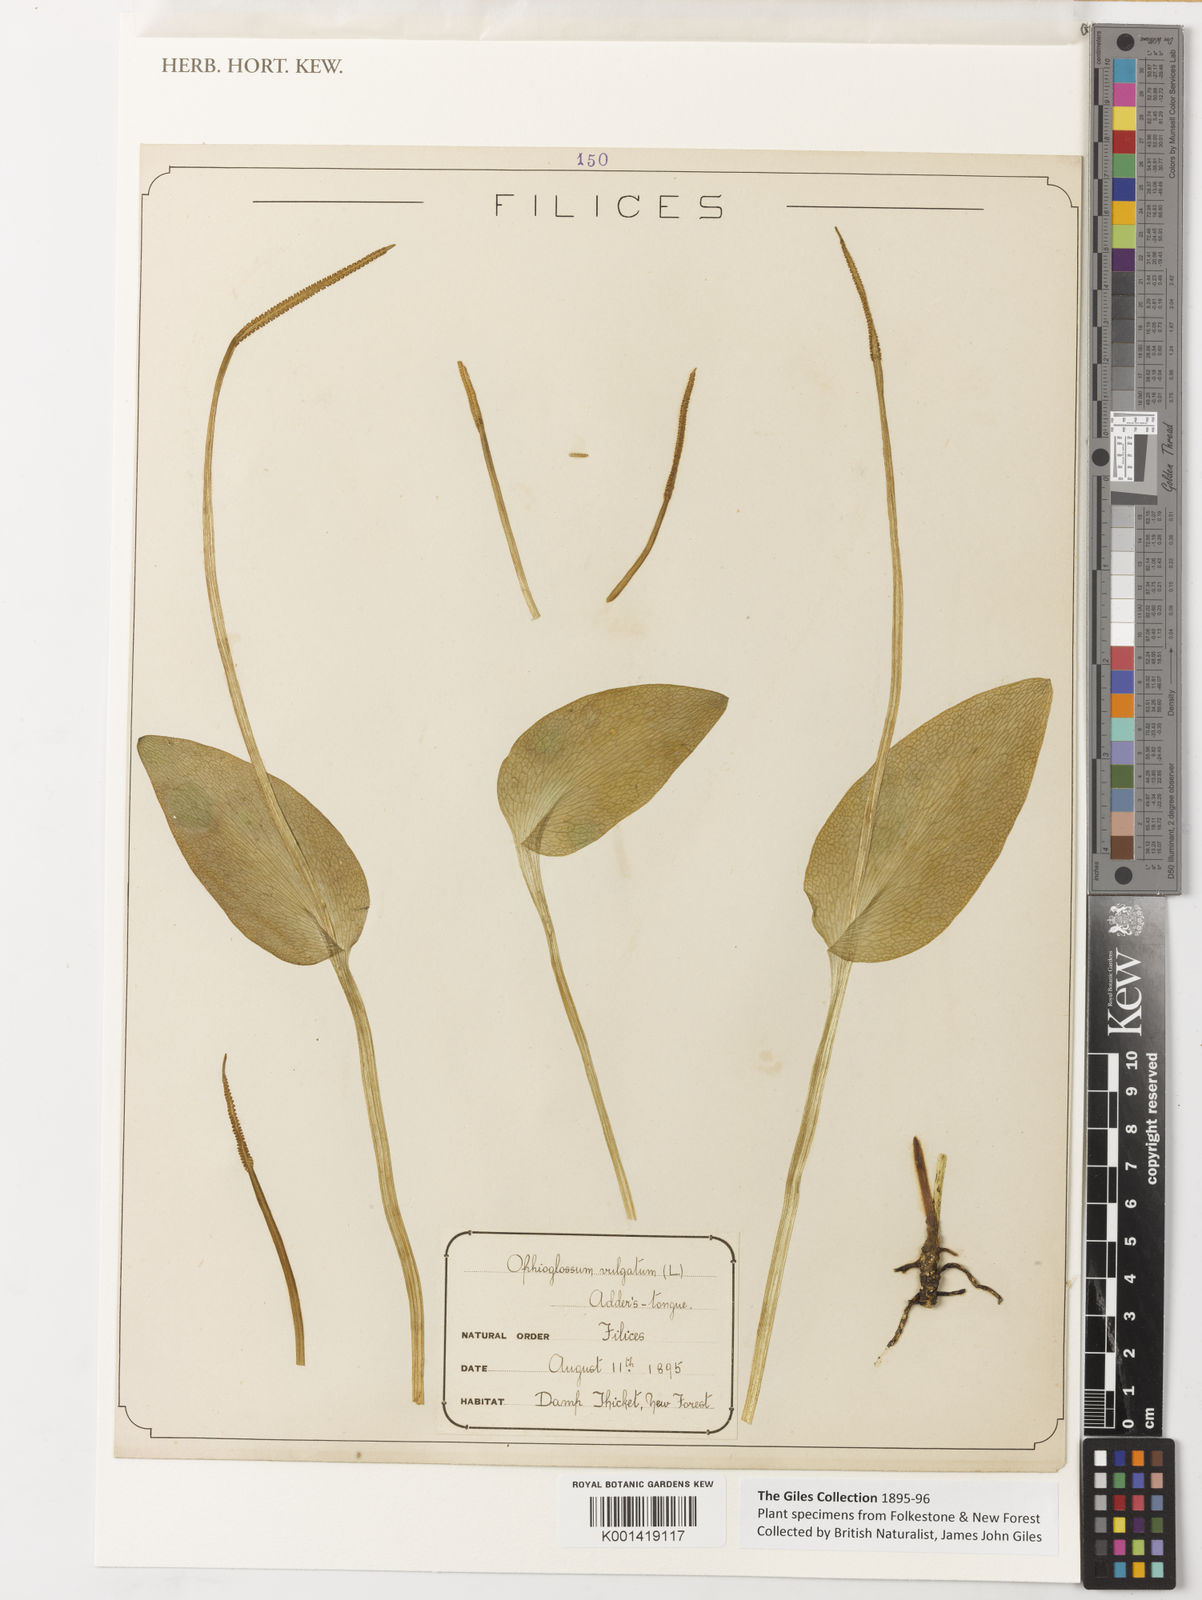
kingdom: Plantae
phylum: Tracheophyta
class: Polypodiopsida
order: Ophioglossales
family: Ophioglossaceae
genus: Ophioglossum
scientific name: Ophioglossum vulgatum
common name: Adder's-tongue
